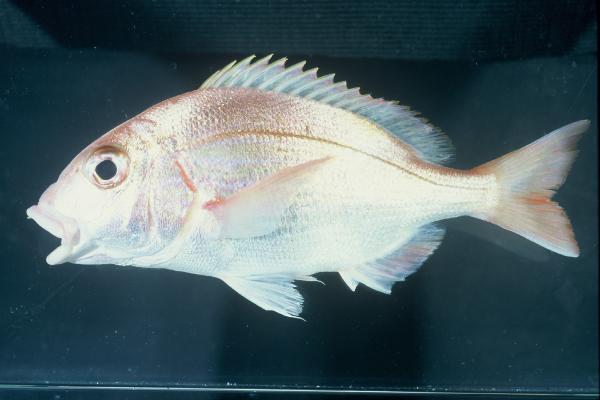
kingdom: Animalia
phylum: Chordata
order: Perciformes
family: Sparidae
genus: Pterogymnus
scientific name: Pterogymnus laniarius
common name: Panga
